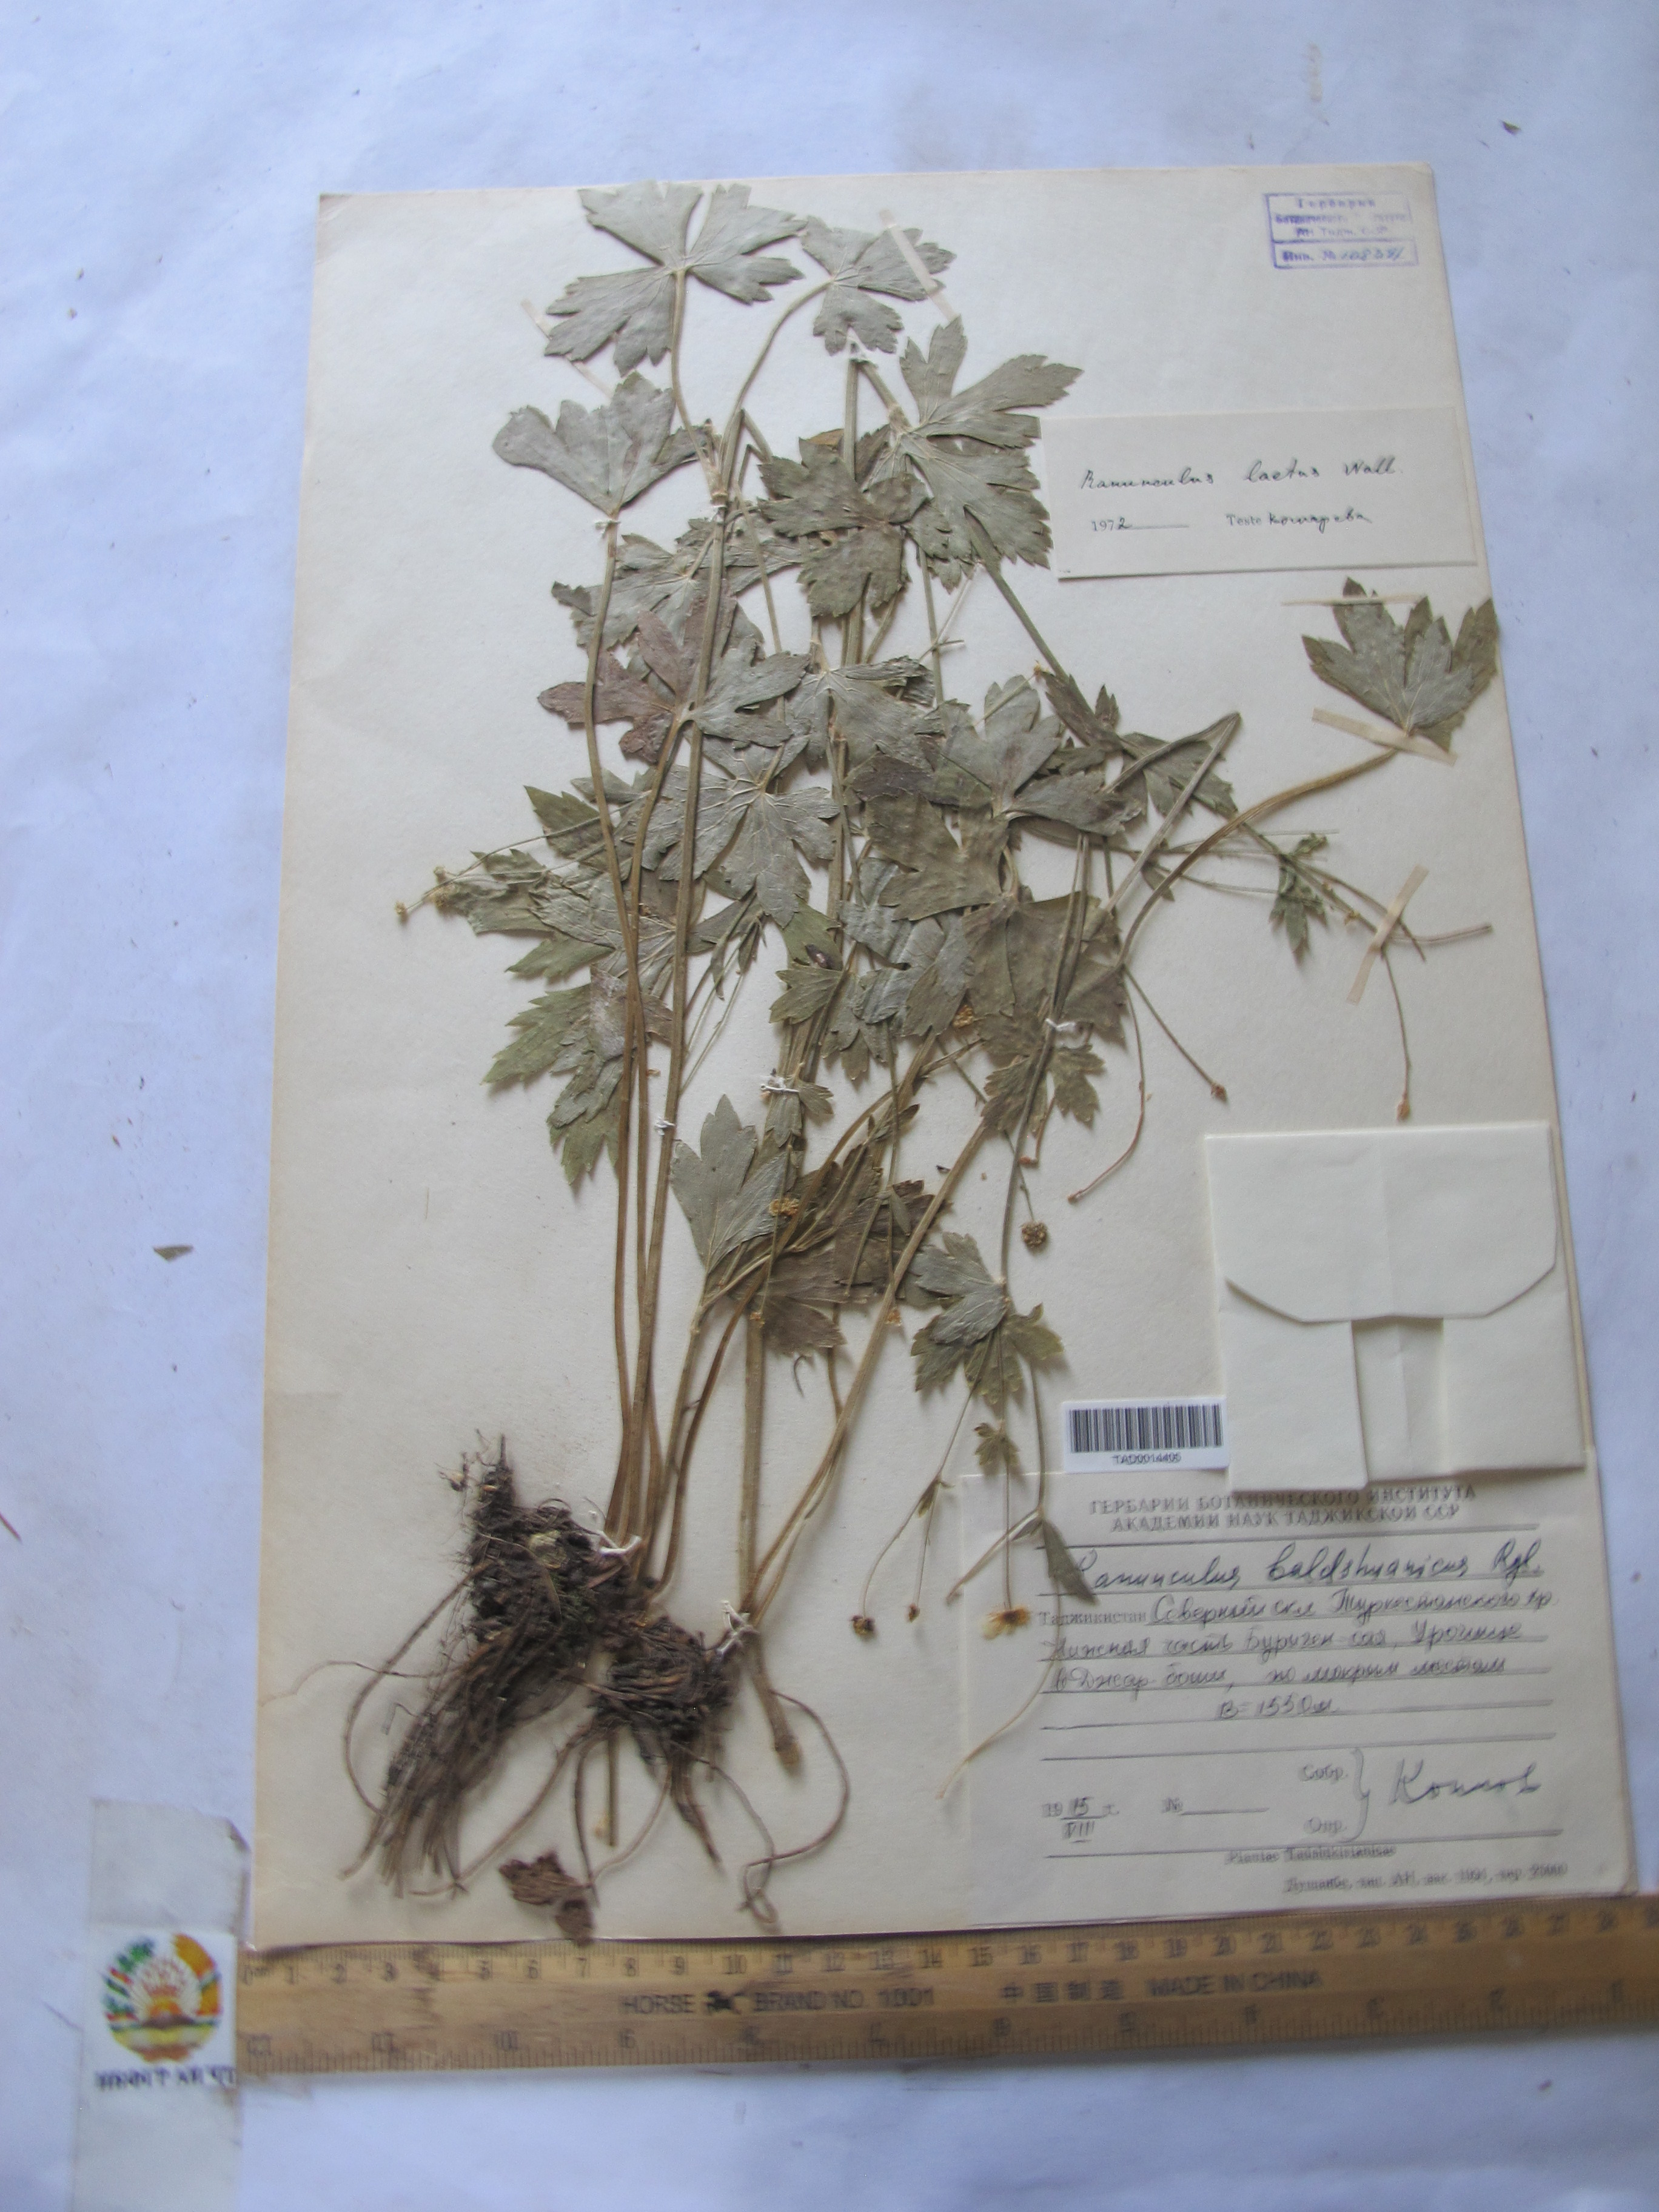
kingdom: Plantae
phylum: Tracheophyta
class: Magnoliopsida
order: Ranunculales
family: Ranunculaceae
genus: Ranunculus
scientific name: Ranunculus distans
